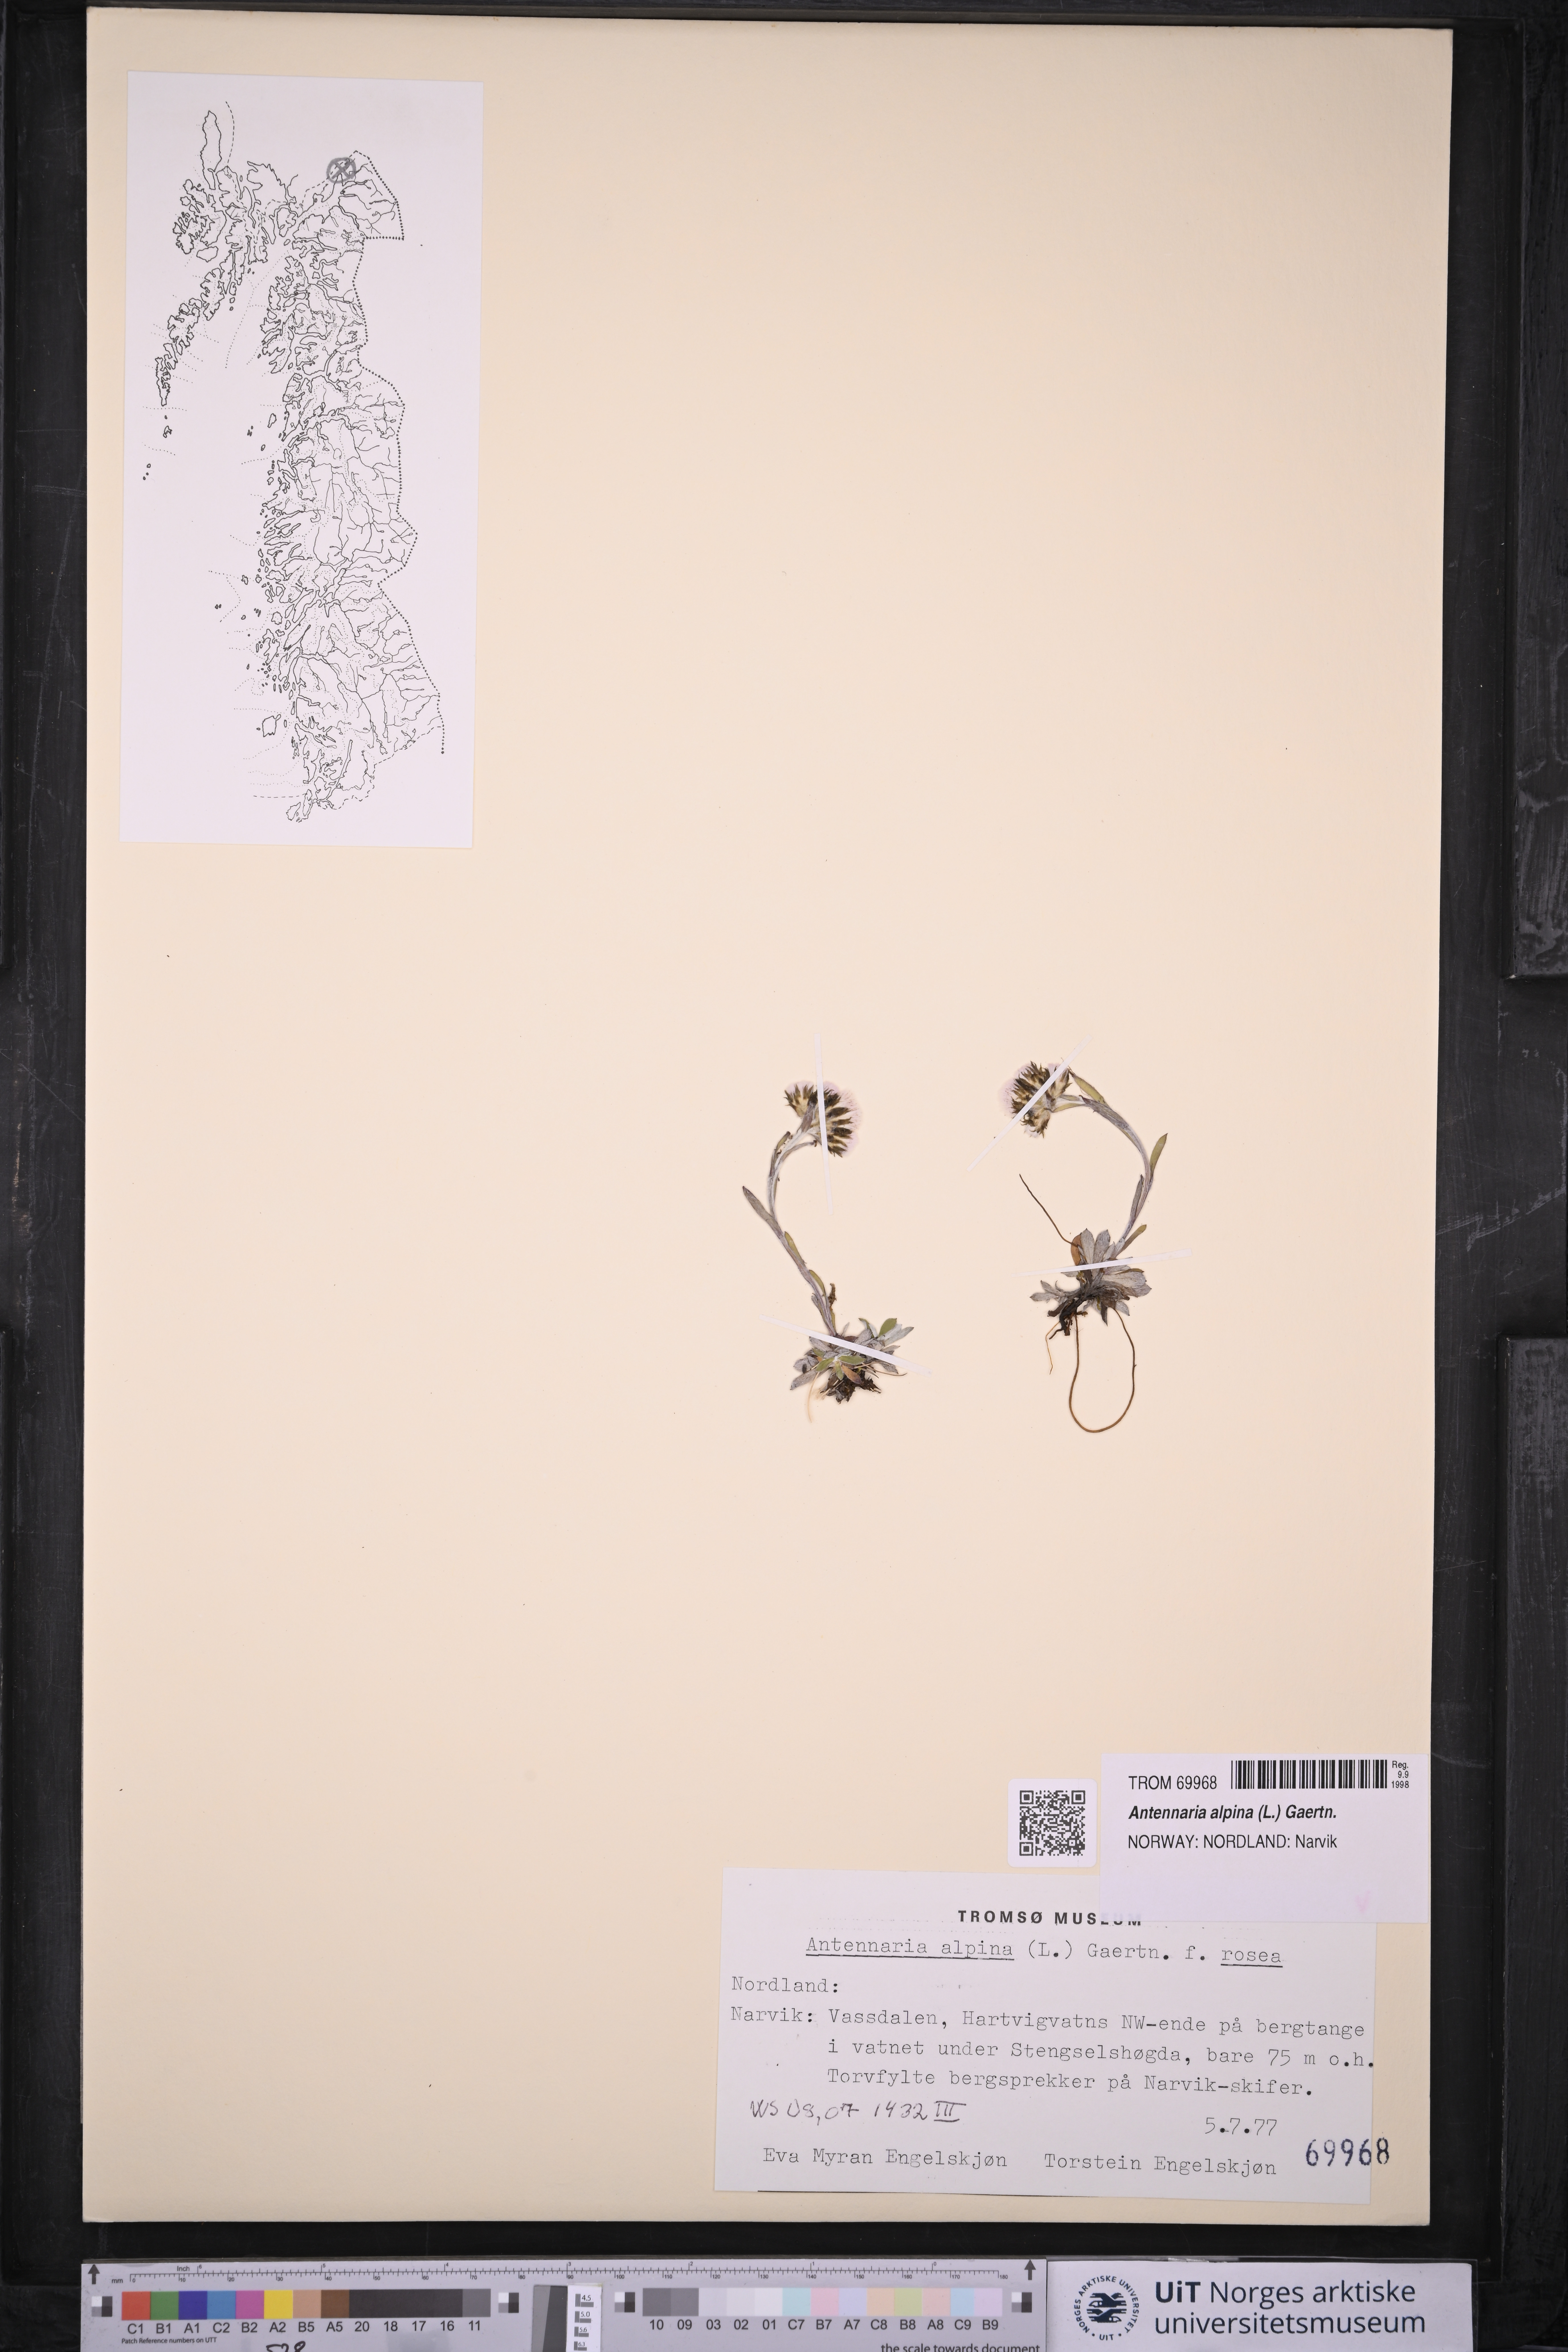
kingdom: Plantae
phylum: Tracheophyta
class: Magnoliopsida
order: Asterales
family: Asteraceae
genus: Antennaria
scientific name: Antennaria alpina
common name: Alpine pussytoes
